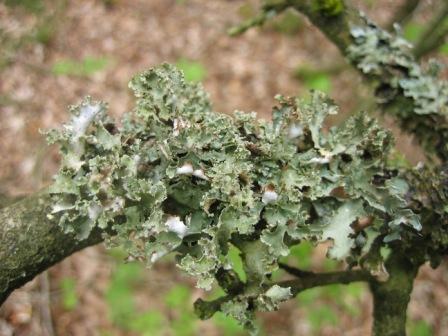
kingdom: Fungi
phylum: Ascomycota
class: Lecanoromycetes
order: Lecanorales
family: Parmeliaceae
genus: Platismatia
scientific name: Platismatia glauca
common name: blågrå papirlav
